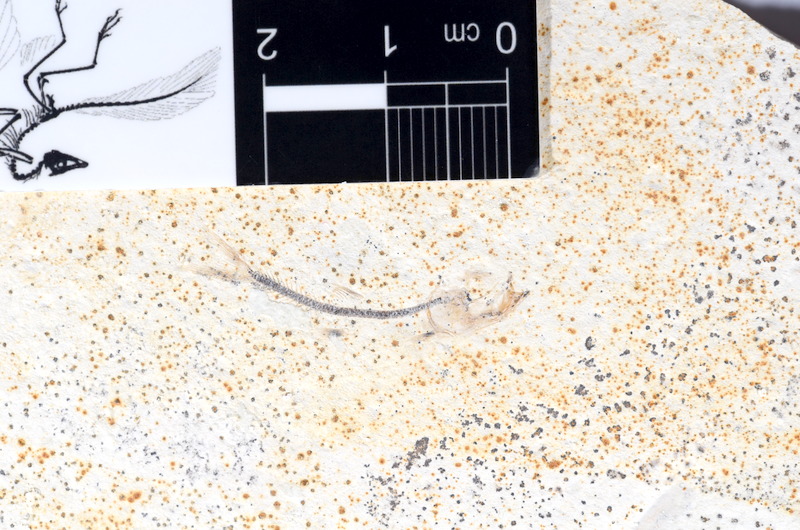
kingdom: Animalia
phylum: Chordata
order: Salmoniformes
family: Orthogonikleithridae
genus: Orthogonikleithrus
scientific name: Orthogonikleithrus hoelli
